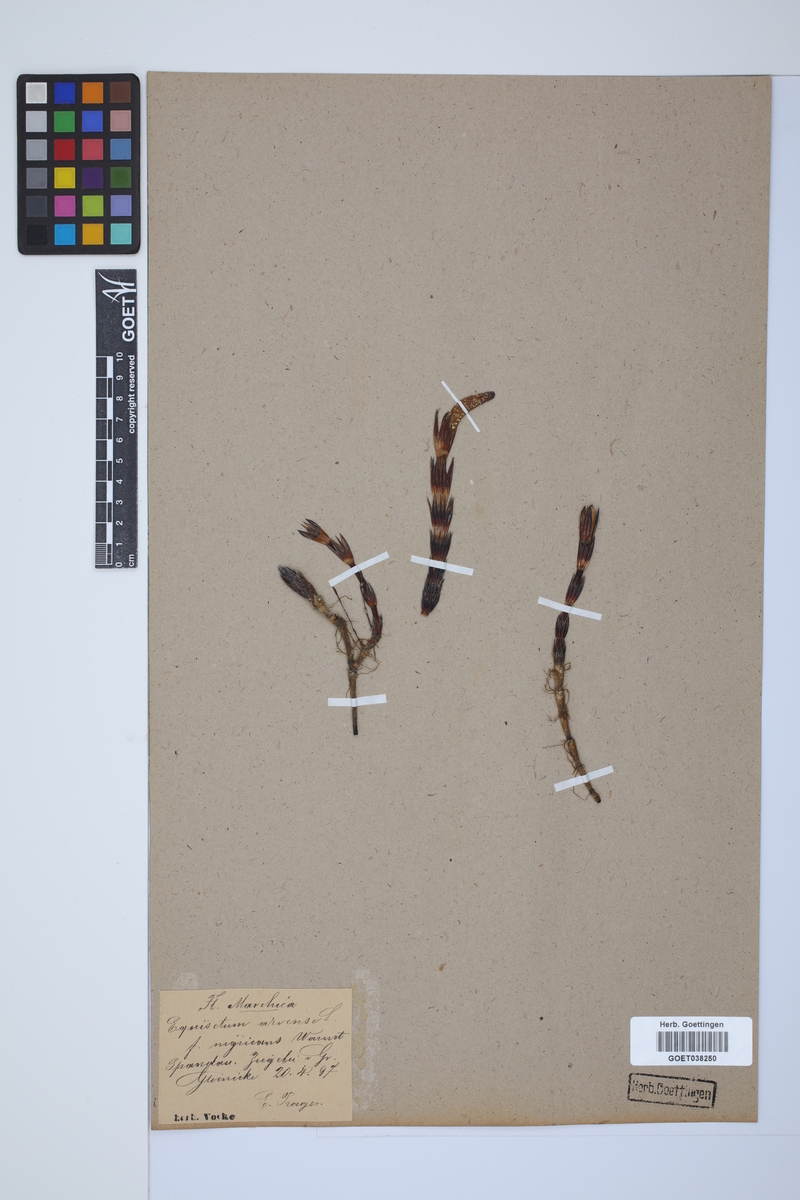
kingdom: Plantae
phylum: Tracheophyta
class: Polypodiopsida
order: Equisetales
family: Equisetaceae
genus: Equisetum
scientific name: Equisetum arvense
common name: Field horsetail
